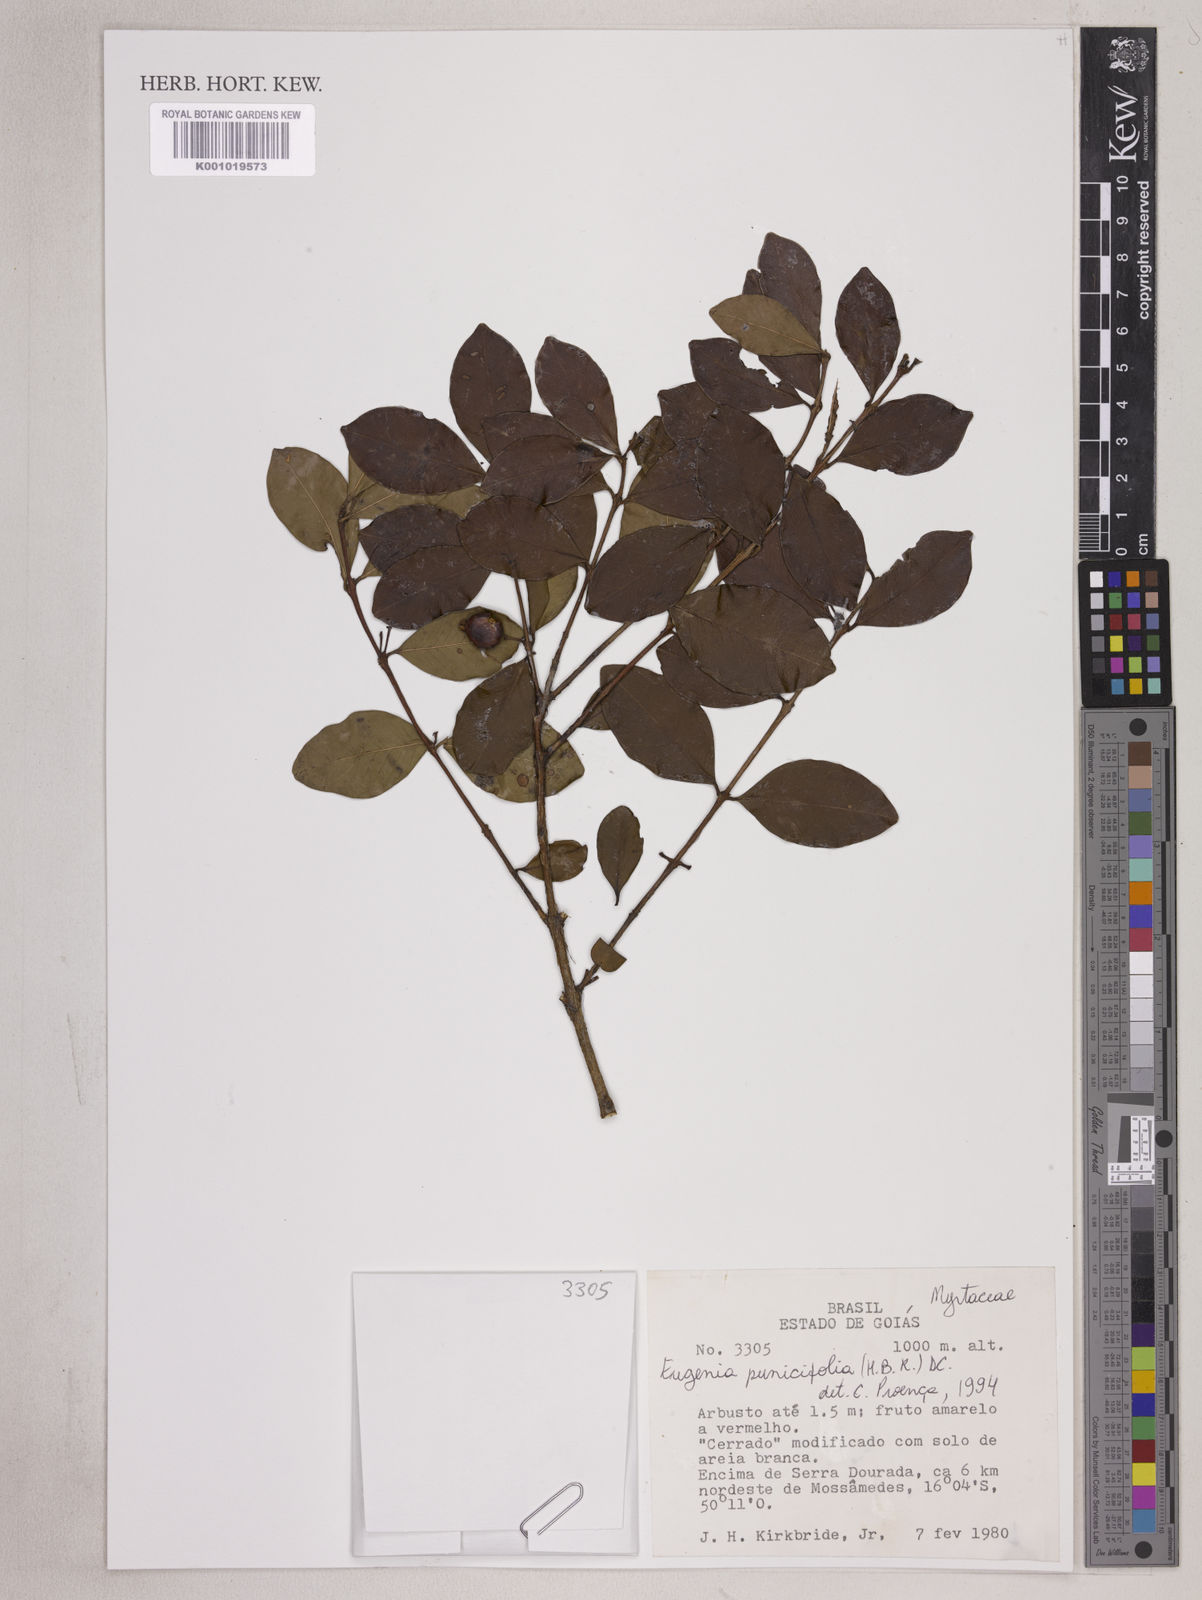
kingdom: Plantae
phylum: Tracheophyta
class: Magnoliopsida
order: Myrtales
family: Myrtaceae
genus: Eugenia
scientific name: Eugenia punicifolia
